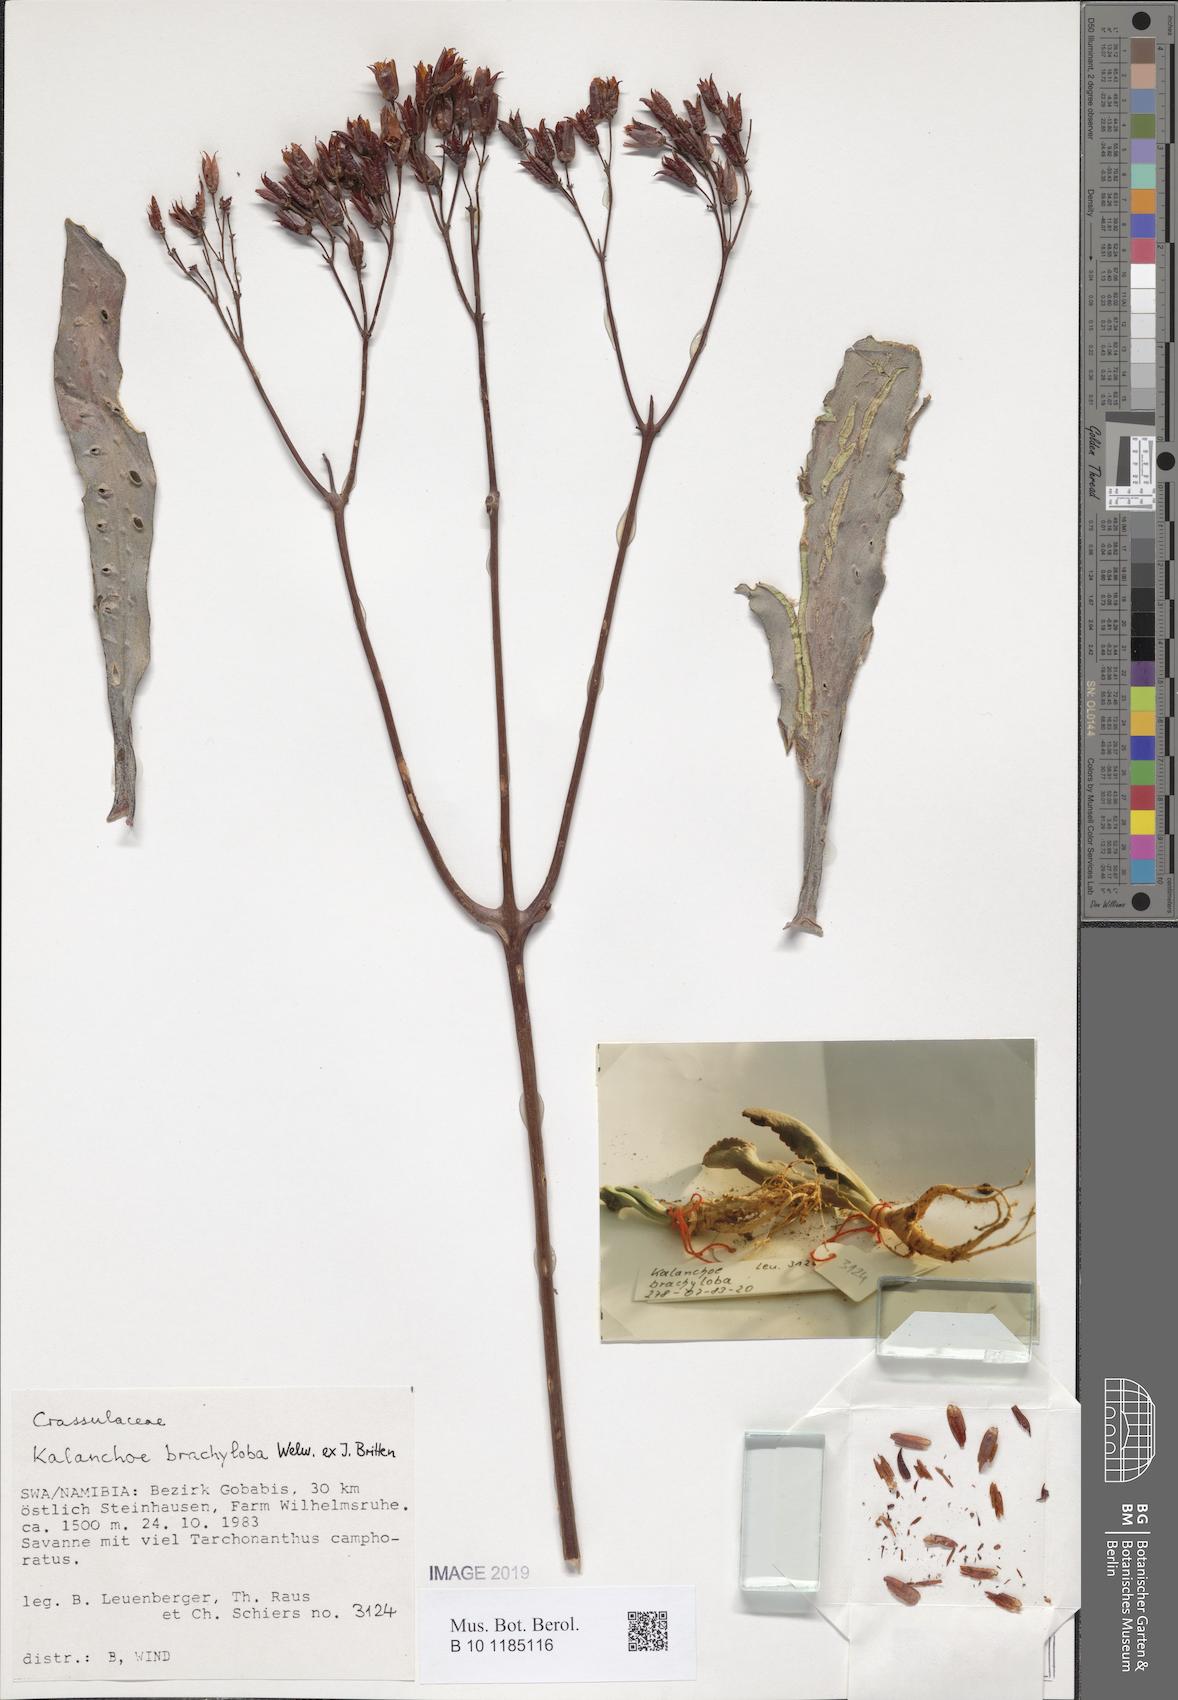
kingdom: Plantae
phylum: Tracheophyta
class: Magnoliopsida
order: Saxifragales
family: Crassulaceae
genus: Kalanchoe
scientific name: Kalanchoe brachyloba
